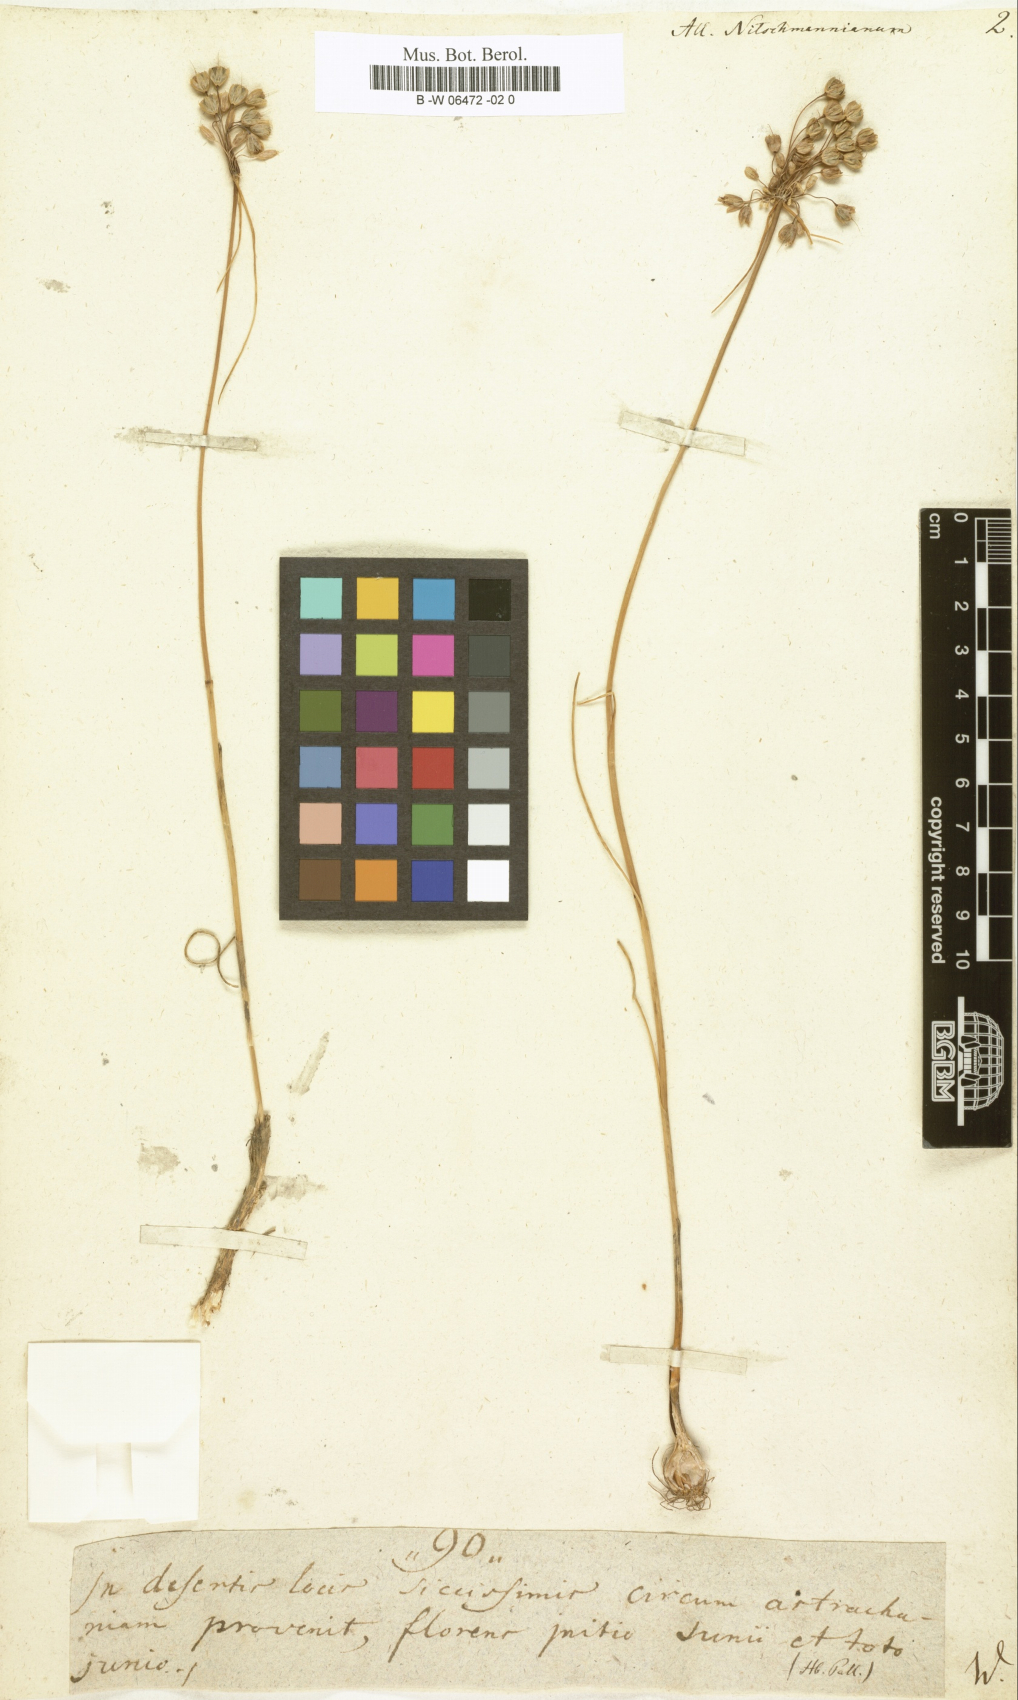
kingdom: Plantae
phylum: Tracheophyta
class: Liliopsida
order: Asparagales
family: Amaryllidaceae
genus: Allium
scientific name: Allium flavum
